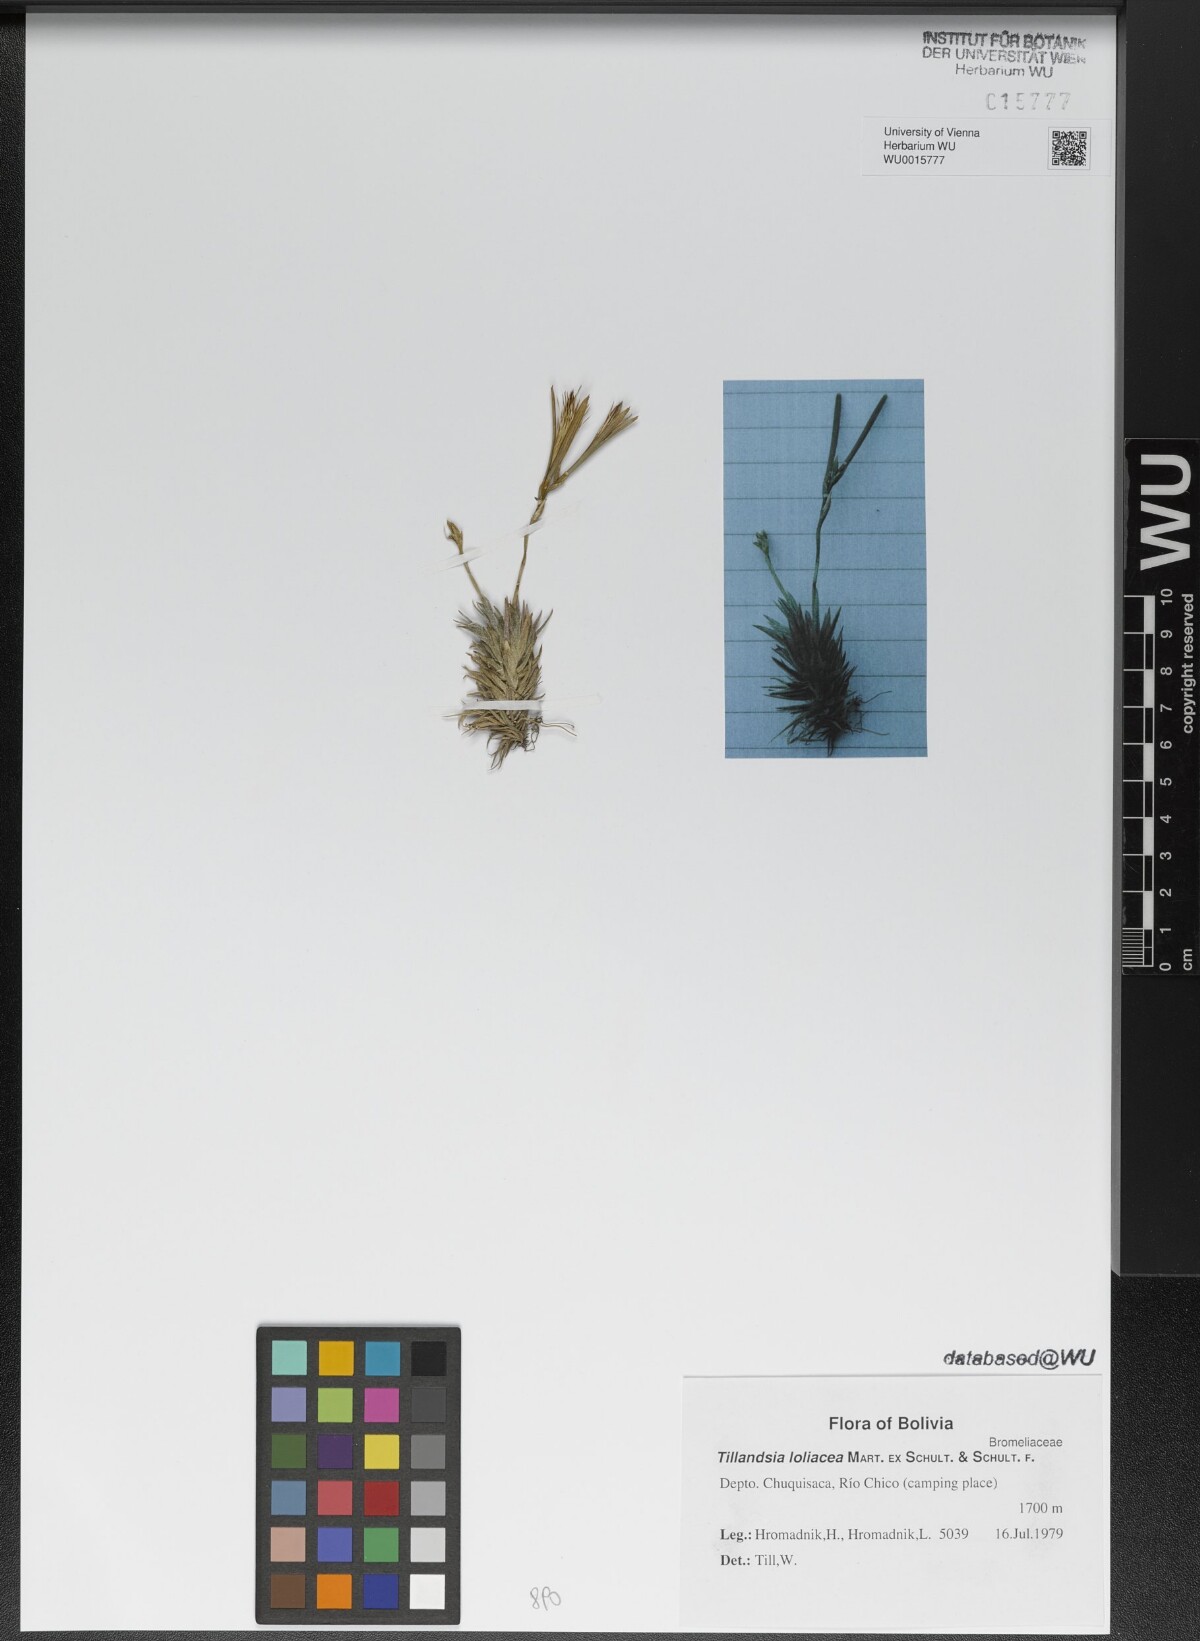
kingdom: Plantae
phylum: Tracheophyta
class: Liliopsida
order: Poales
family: Bromeliaceae
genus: Tillandsia
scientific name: Tillandsia loliacea
